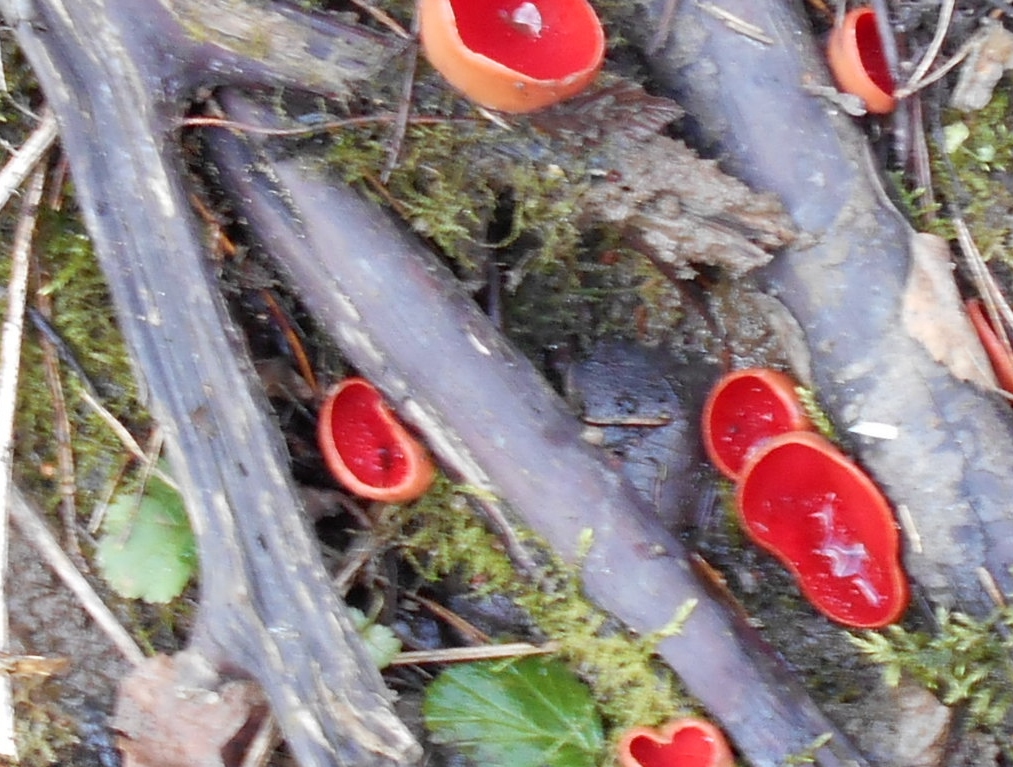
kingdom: Fungi
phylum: Ascomycota
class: Pezizomycetes
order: Pezizales
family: Sarcoscyphaceae
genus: Sarcoscypha
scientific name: Sarcoscypha austriaca
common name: Scarlet elfcup
